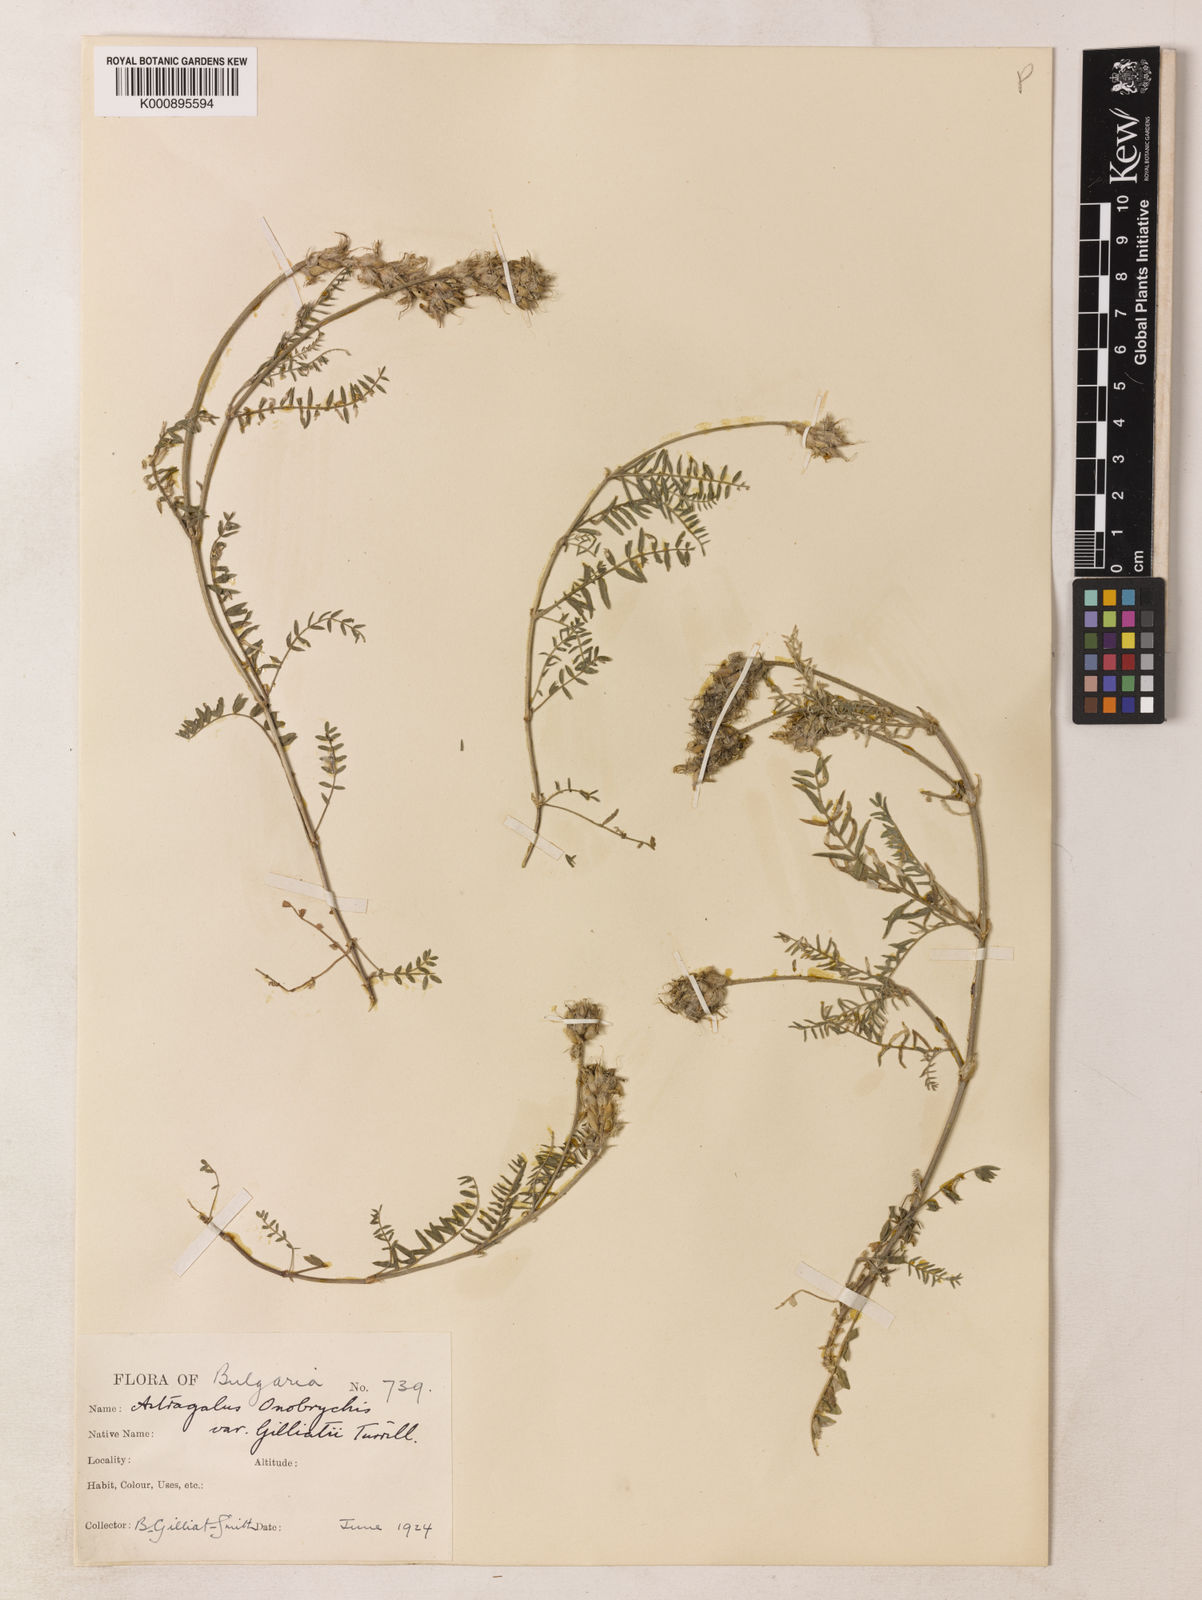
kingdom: Plantae
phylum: Tracheophyta
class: Magnoliopsida
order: Fabales
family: Fabaceae
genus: Astragalus
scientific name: Astragalus
